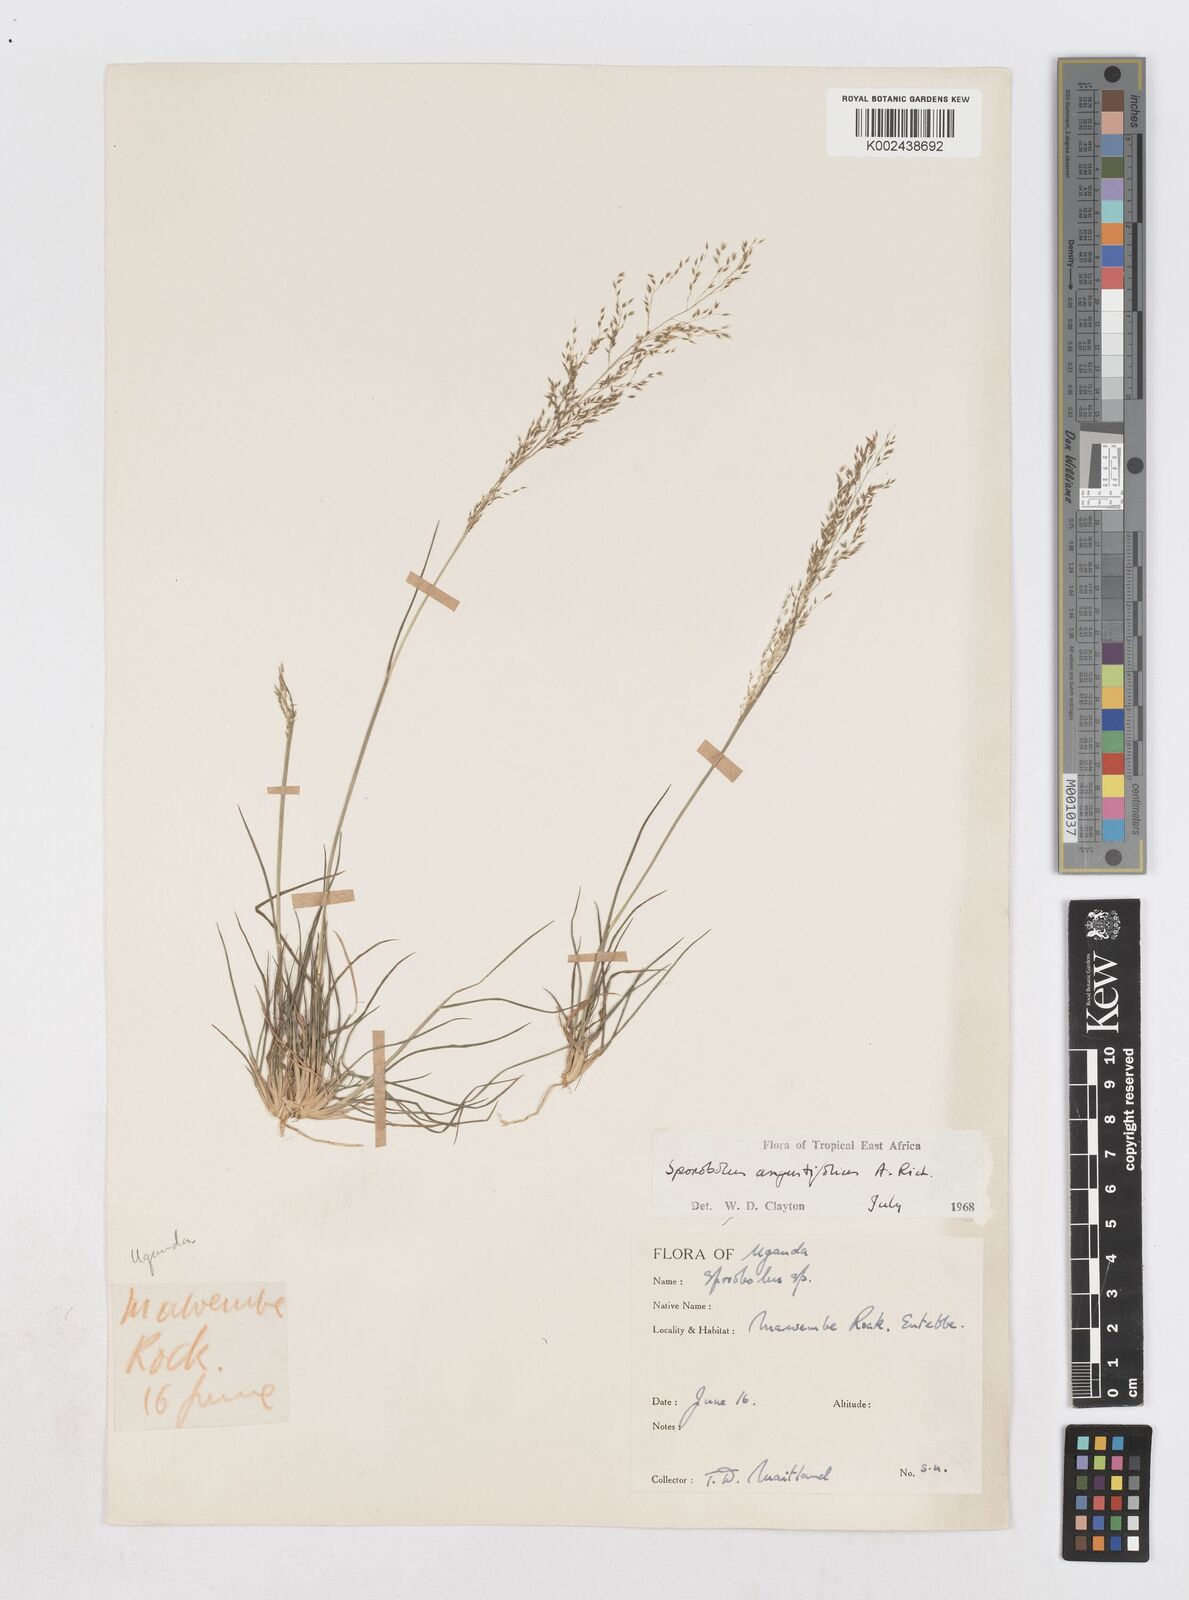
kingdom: Plantae
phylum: Tracheophyta
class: Liliopsida
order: Poales
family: Poaceae
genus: Sporobolus
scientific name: Sporobolus angustifolius
